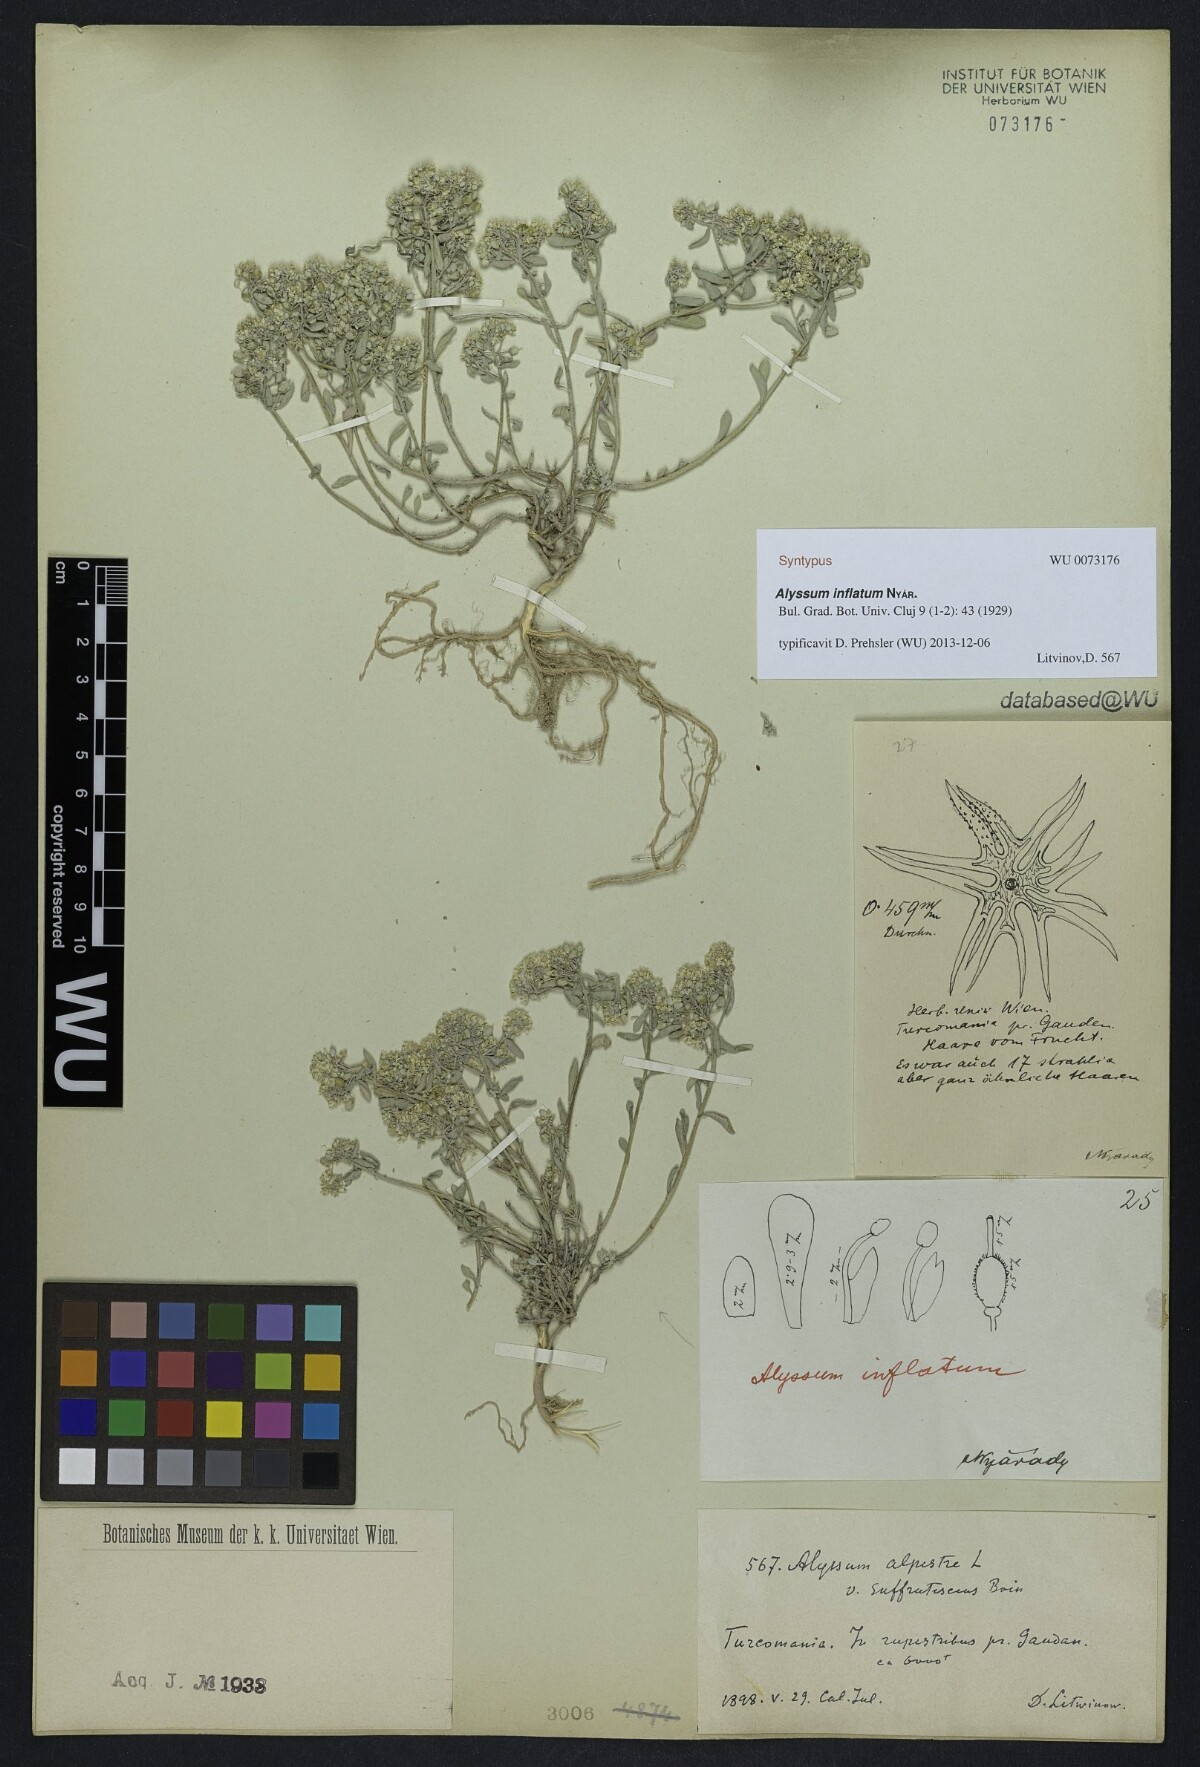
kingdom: Plantae
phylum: Tracheophyta
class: Magnoliopsida
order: Brassicales
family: Brassicaceae
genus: Odontarrhena
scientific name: Odontarrhena inflata
